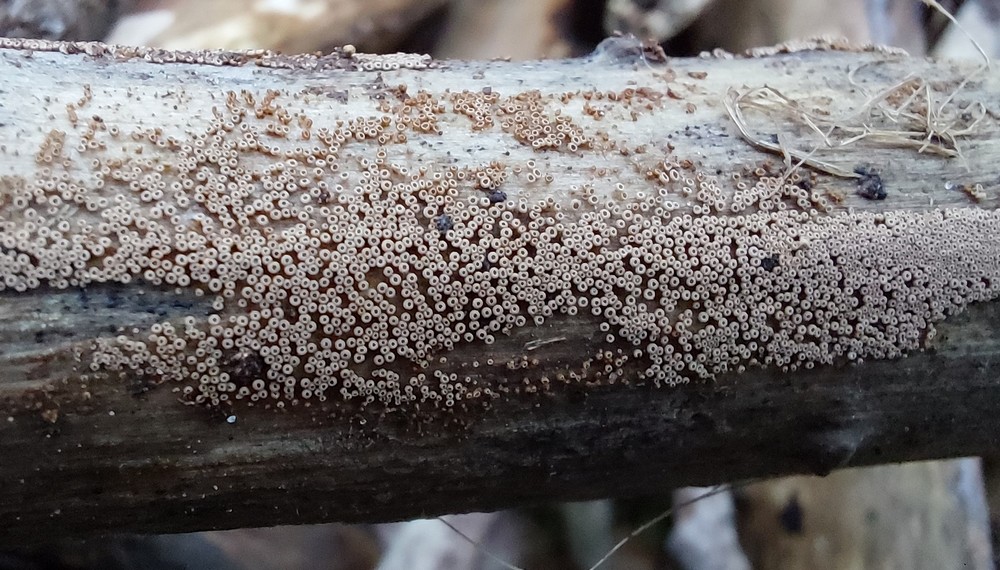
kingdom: Fungi
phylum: Basidiomycota
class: Agaricomycetes
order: Agaricales
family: Niaceae
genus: Merismodes
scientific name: Merismodes anomala
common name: almindelig læderskål
